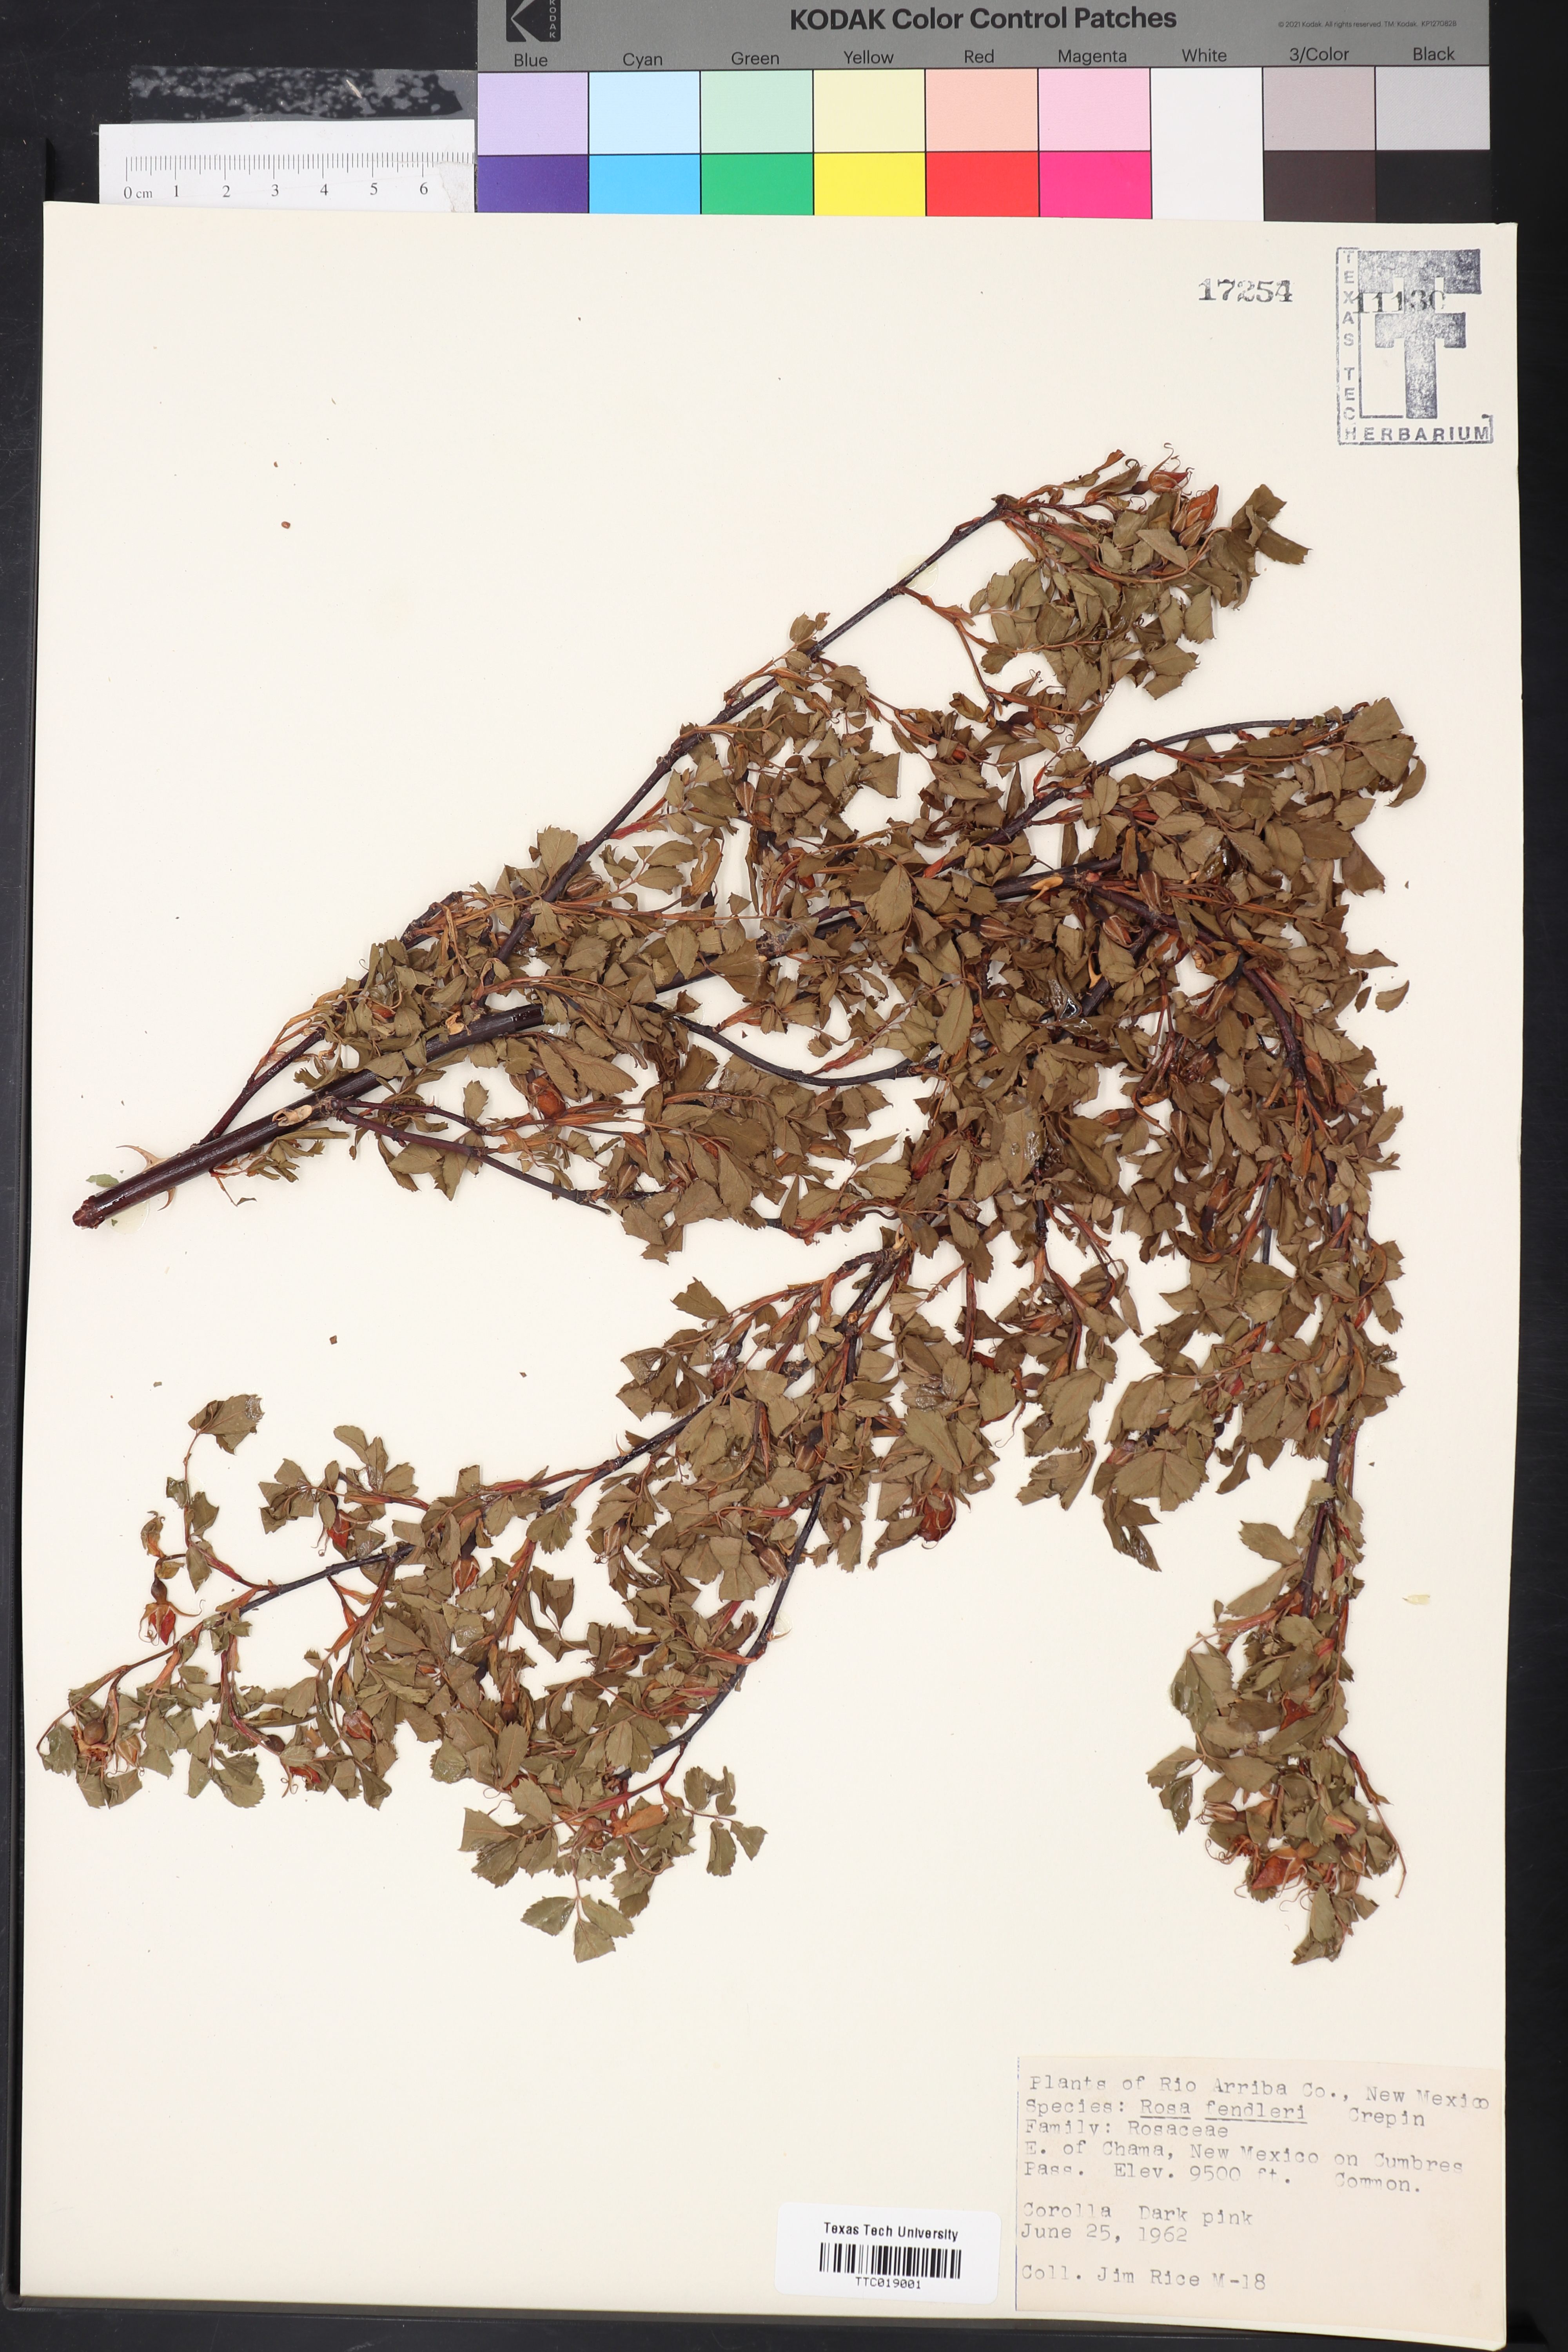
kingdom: Plantae
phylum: Tracheophyta
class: Magnoliopsida
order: Rosales
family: Rosaceae
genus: Rosa
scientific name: Rosa woodsii
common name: Woods's rose
